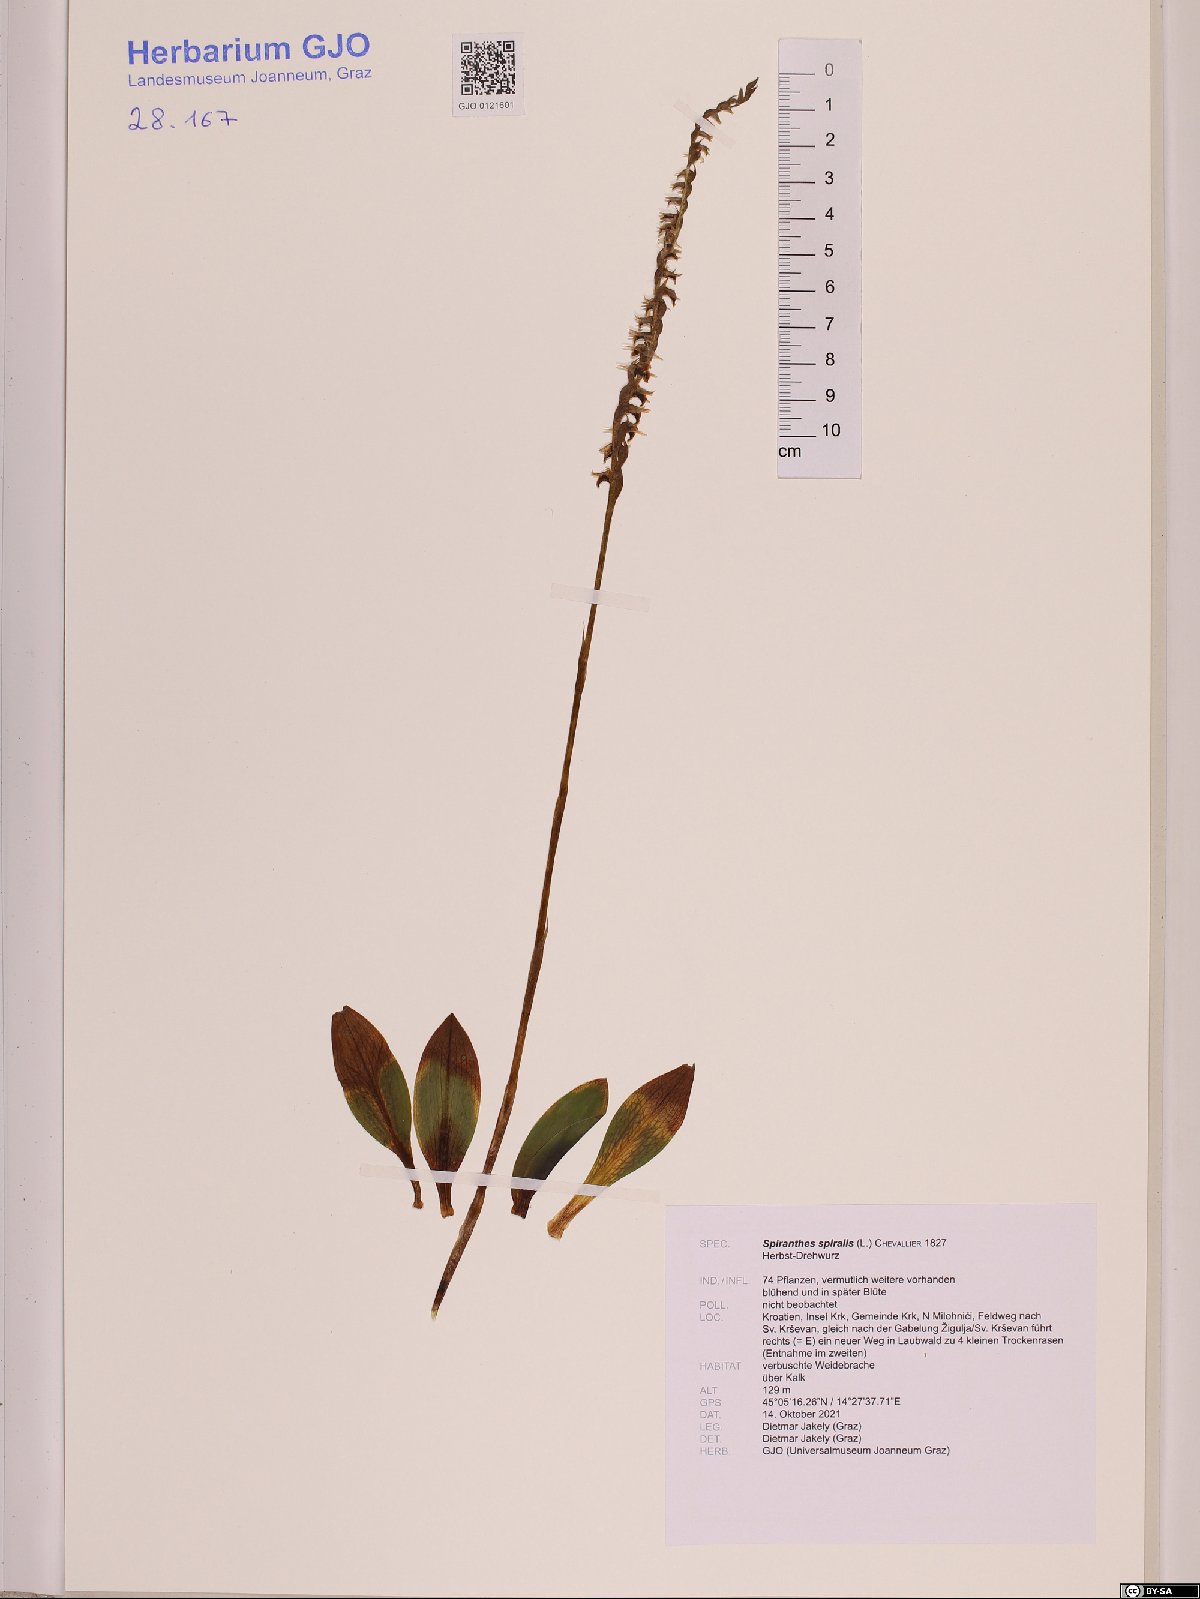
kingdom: Plantae
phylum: Tracheophyta
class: Liliopsida
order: Asparagales
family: Orchidaceae
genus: Spiranthes
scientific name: Spiranthes spiralis
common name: Autumn lady's-tresses
